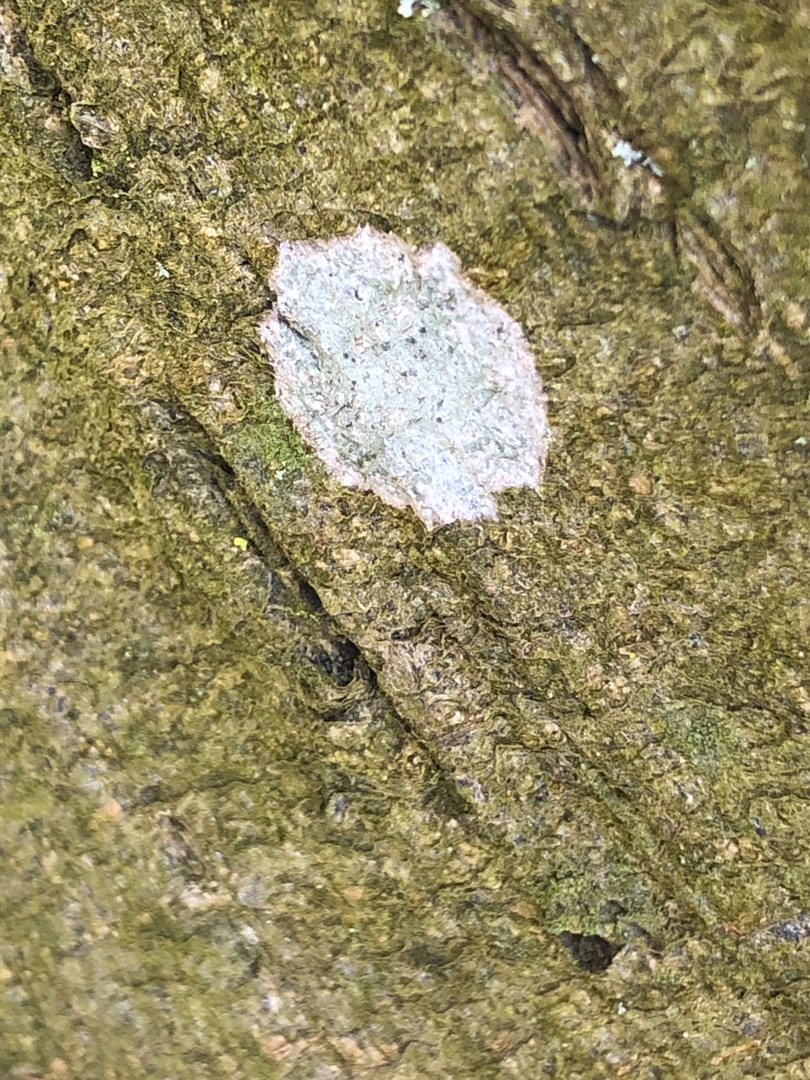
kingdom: Fungi
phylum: Ascomycota
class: Lecanoromycetes
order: Ostropales
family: Phlyctidaceae
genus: Phlyctis
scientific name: Phlyctis argena
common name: Almindelig sølvlav
